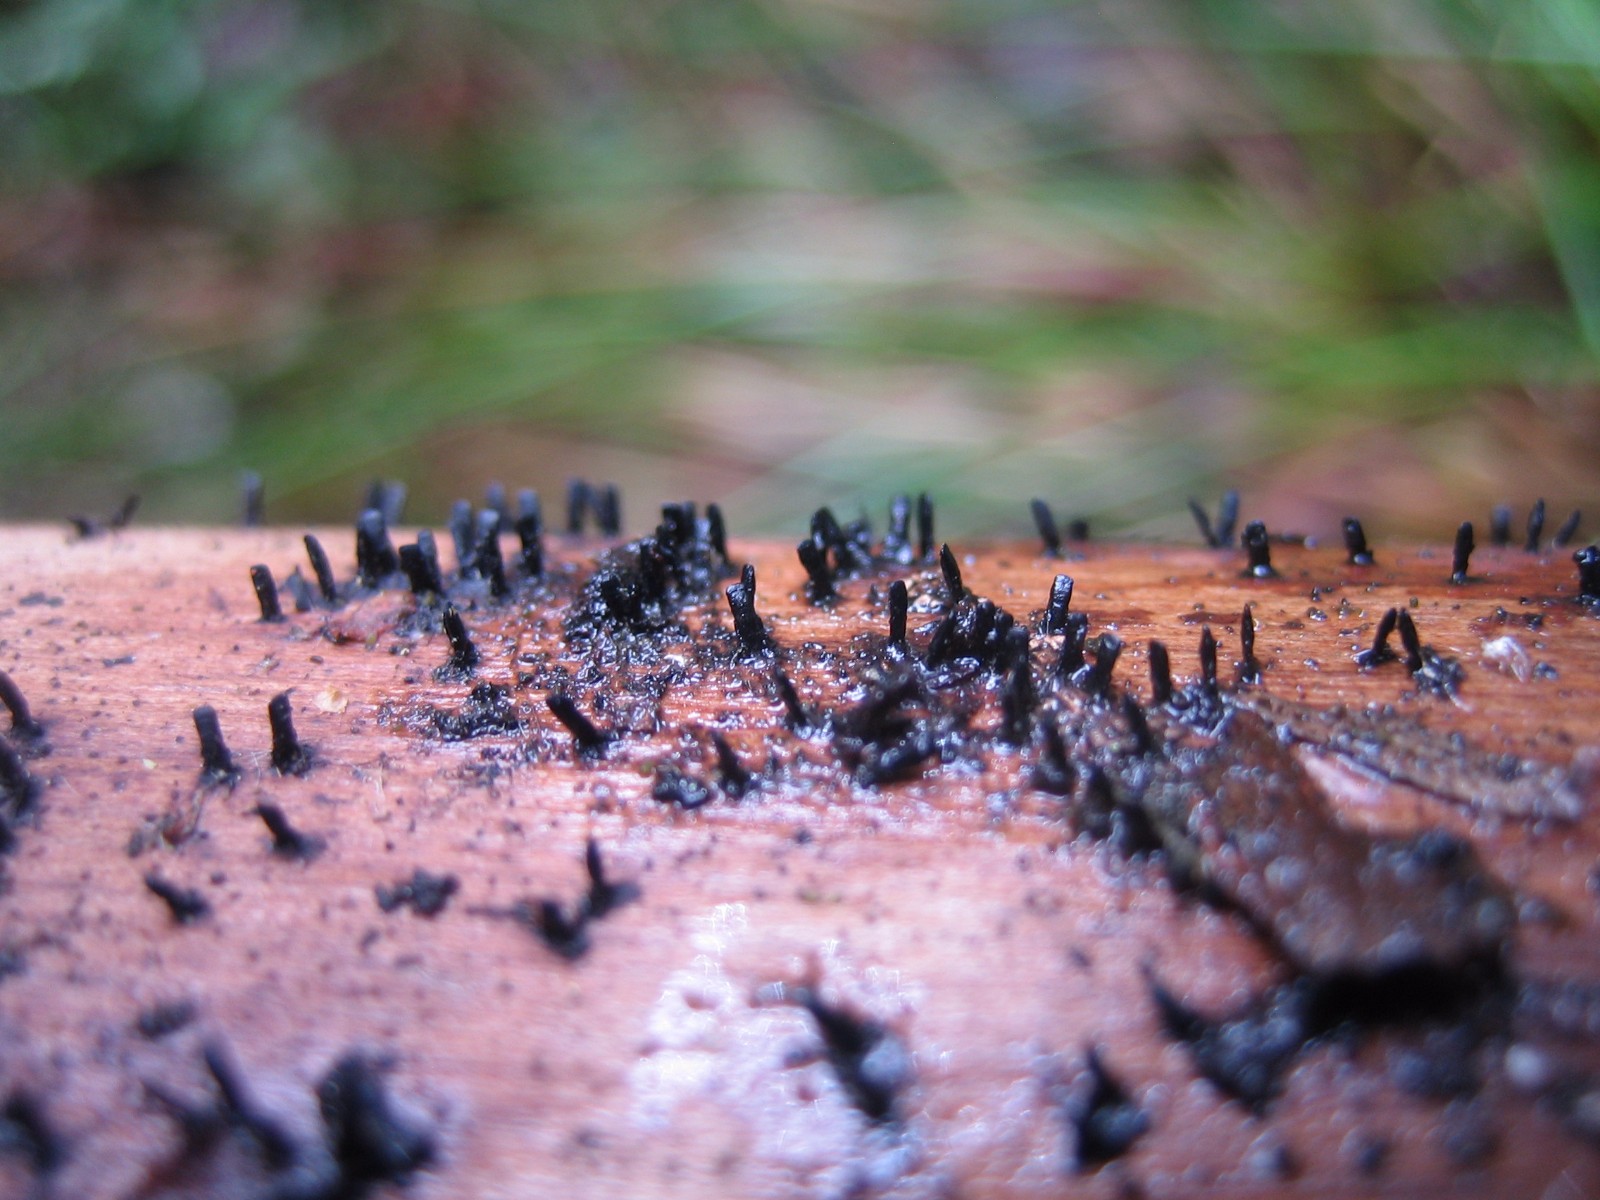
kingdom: Fungi
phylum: Ascomycota
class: Eurotiomycetes
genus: Glyphium
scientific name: Glyphium elatum
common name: kuløkse
